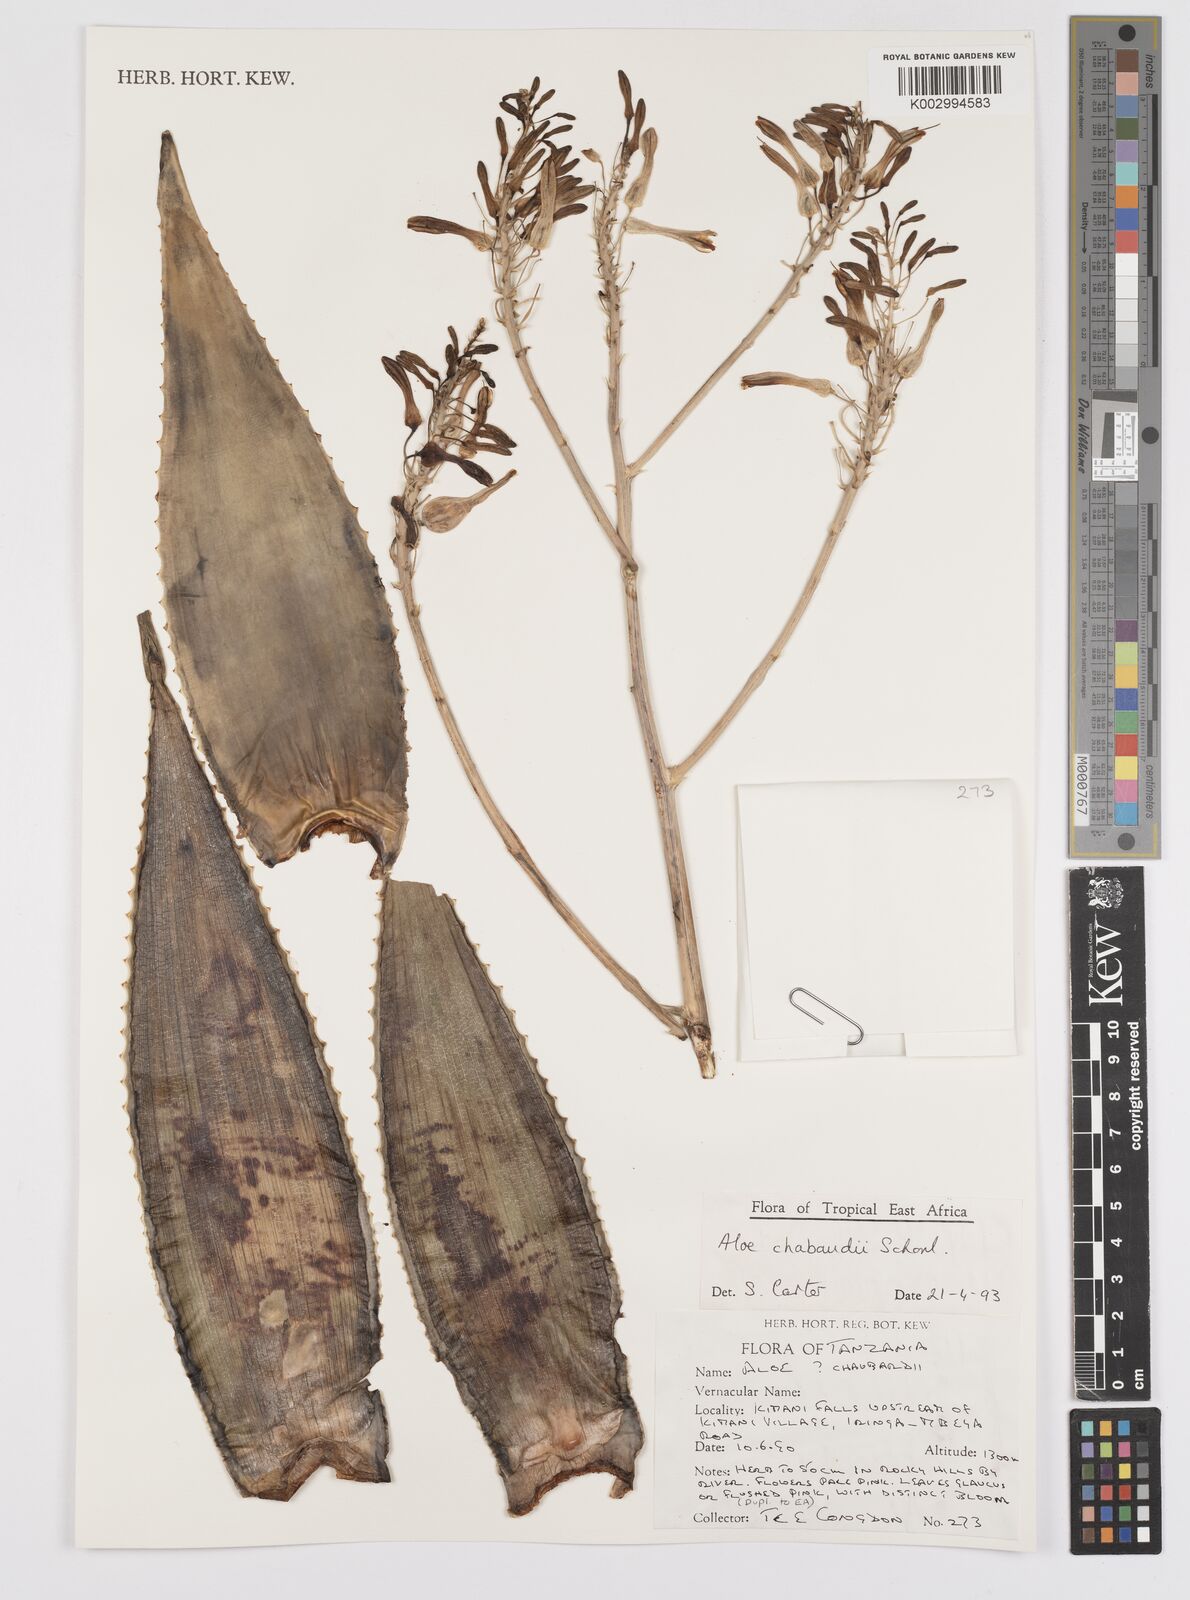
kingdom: Plantae
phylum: Tracheophyta
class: Liliopsida
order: Asparagales
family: Asphodelaceae
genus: Aloe
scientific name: Aloe chabaudii
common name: Chabaud's aloe
